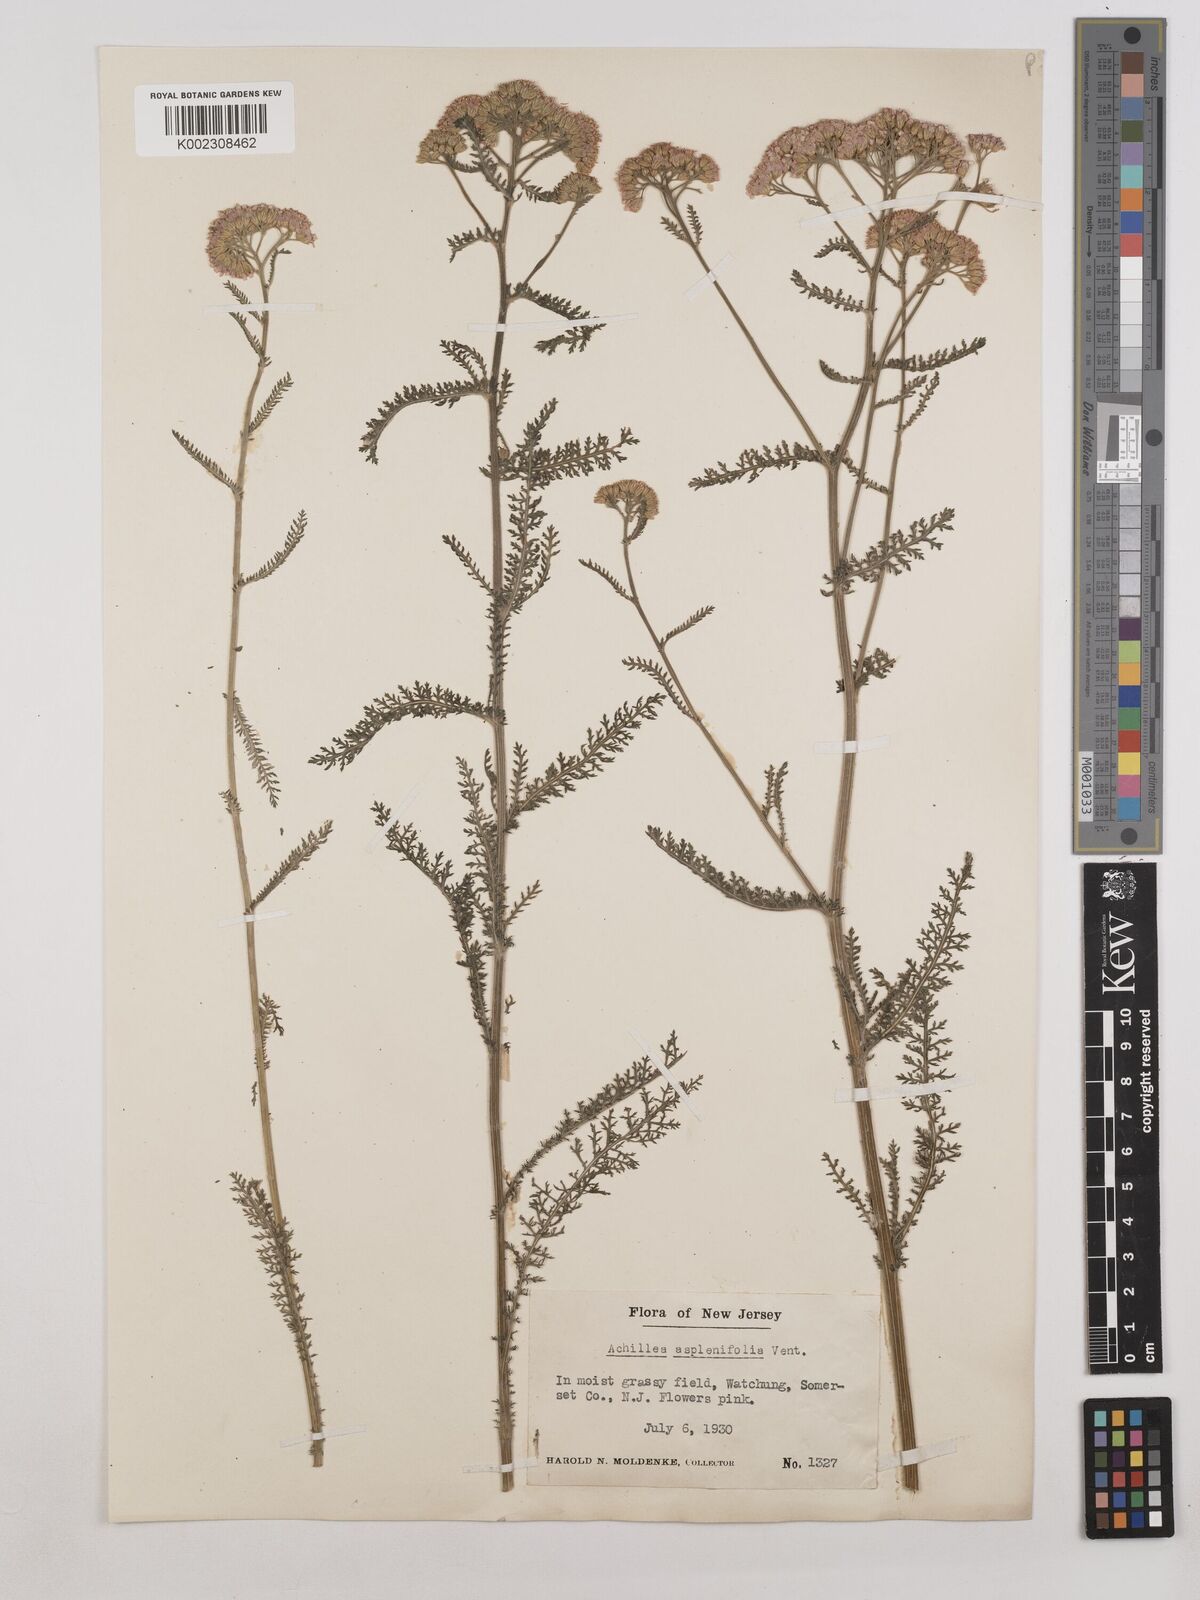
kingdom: Plantae
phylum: Tracheophyta
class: Magnoliopsida
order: Asterales
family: Asteraceae
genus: Achillea
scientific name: Achillea millefolium
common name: Yarrow
